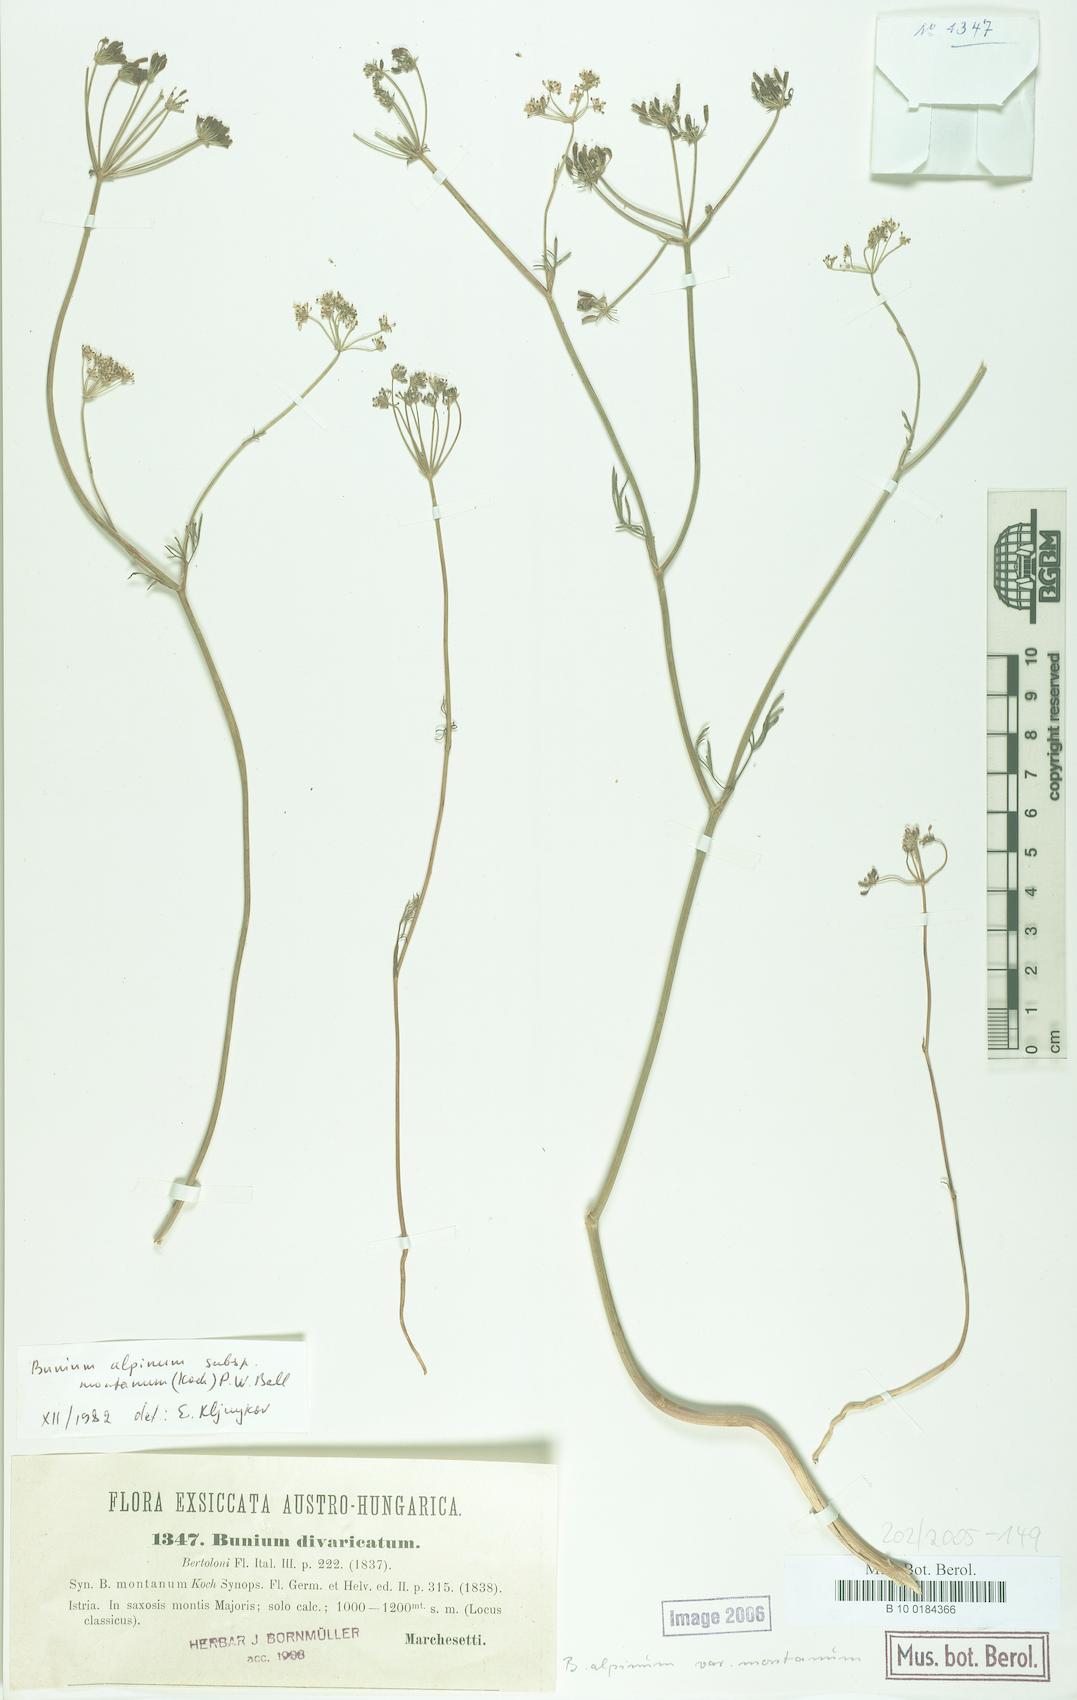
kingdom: Plantae
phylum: Tracheophyta
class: Magnoliopsida
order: Apiales
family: Apiaceae
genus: Bunium
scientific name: Bunium alpinum
